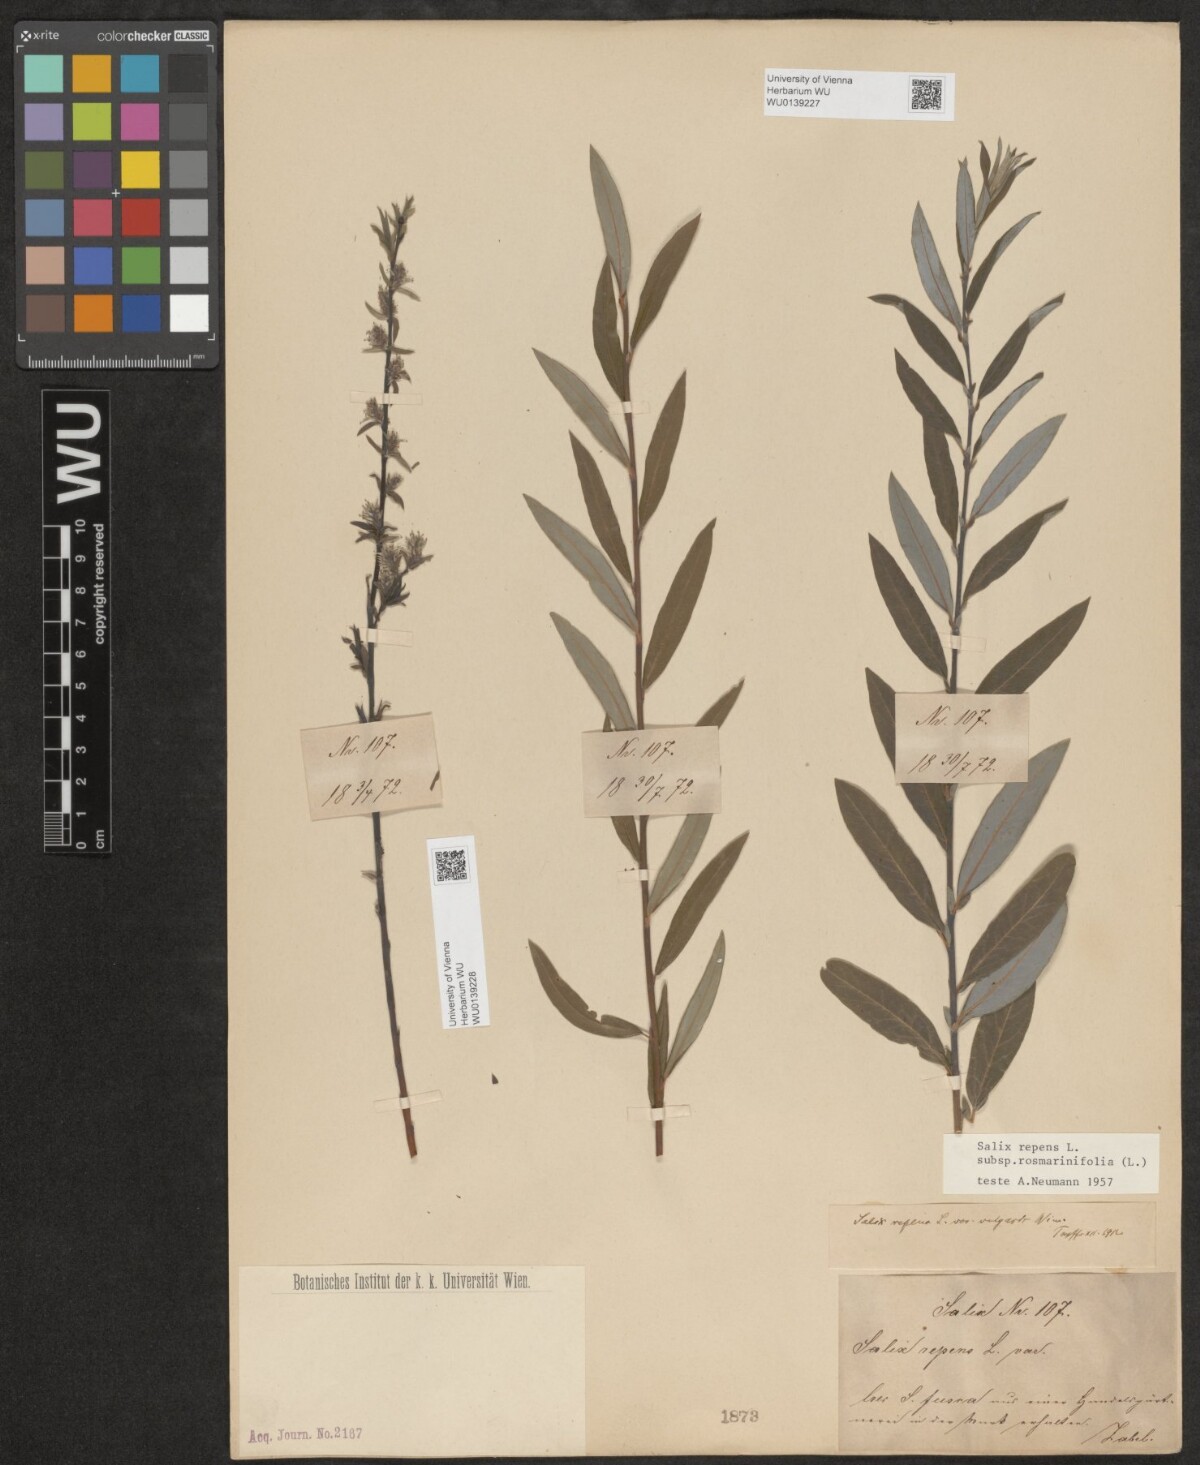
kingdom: Plantae
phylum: Tracheophyta
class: Magnoliopsida
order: Malpighiales
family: Salicaceae
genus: Salix
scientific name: Salix repens
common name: Creeping willow
